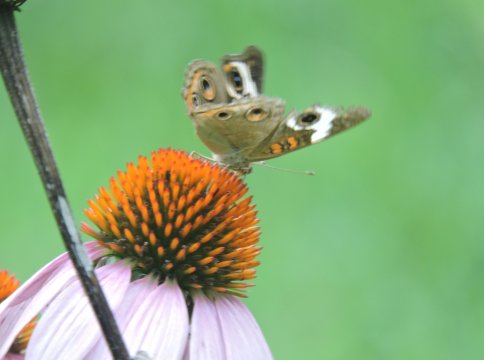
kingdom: Animalia
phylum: Arthropoda
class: Insecta
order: Lepidoptera
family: Nymphalidae
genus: Junonia
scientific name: Junonia coenia
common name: Common Buckeye
